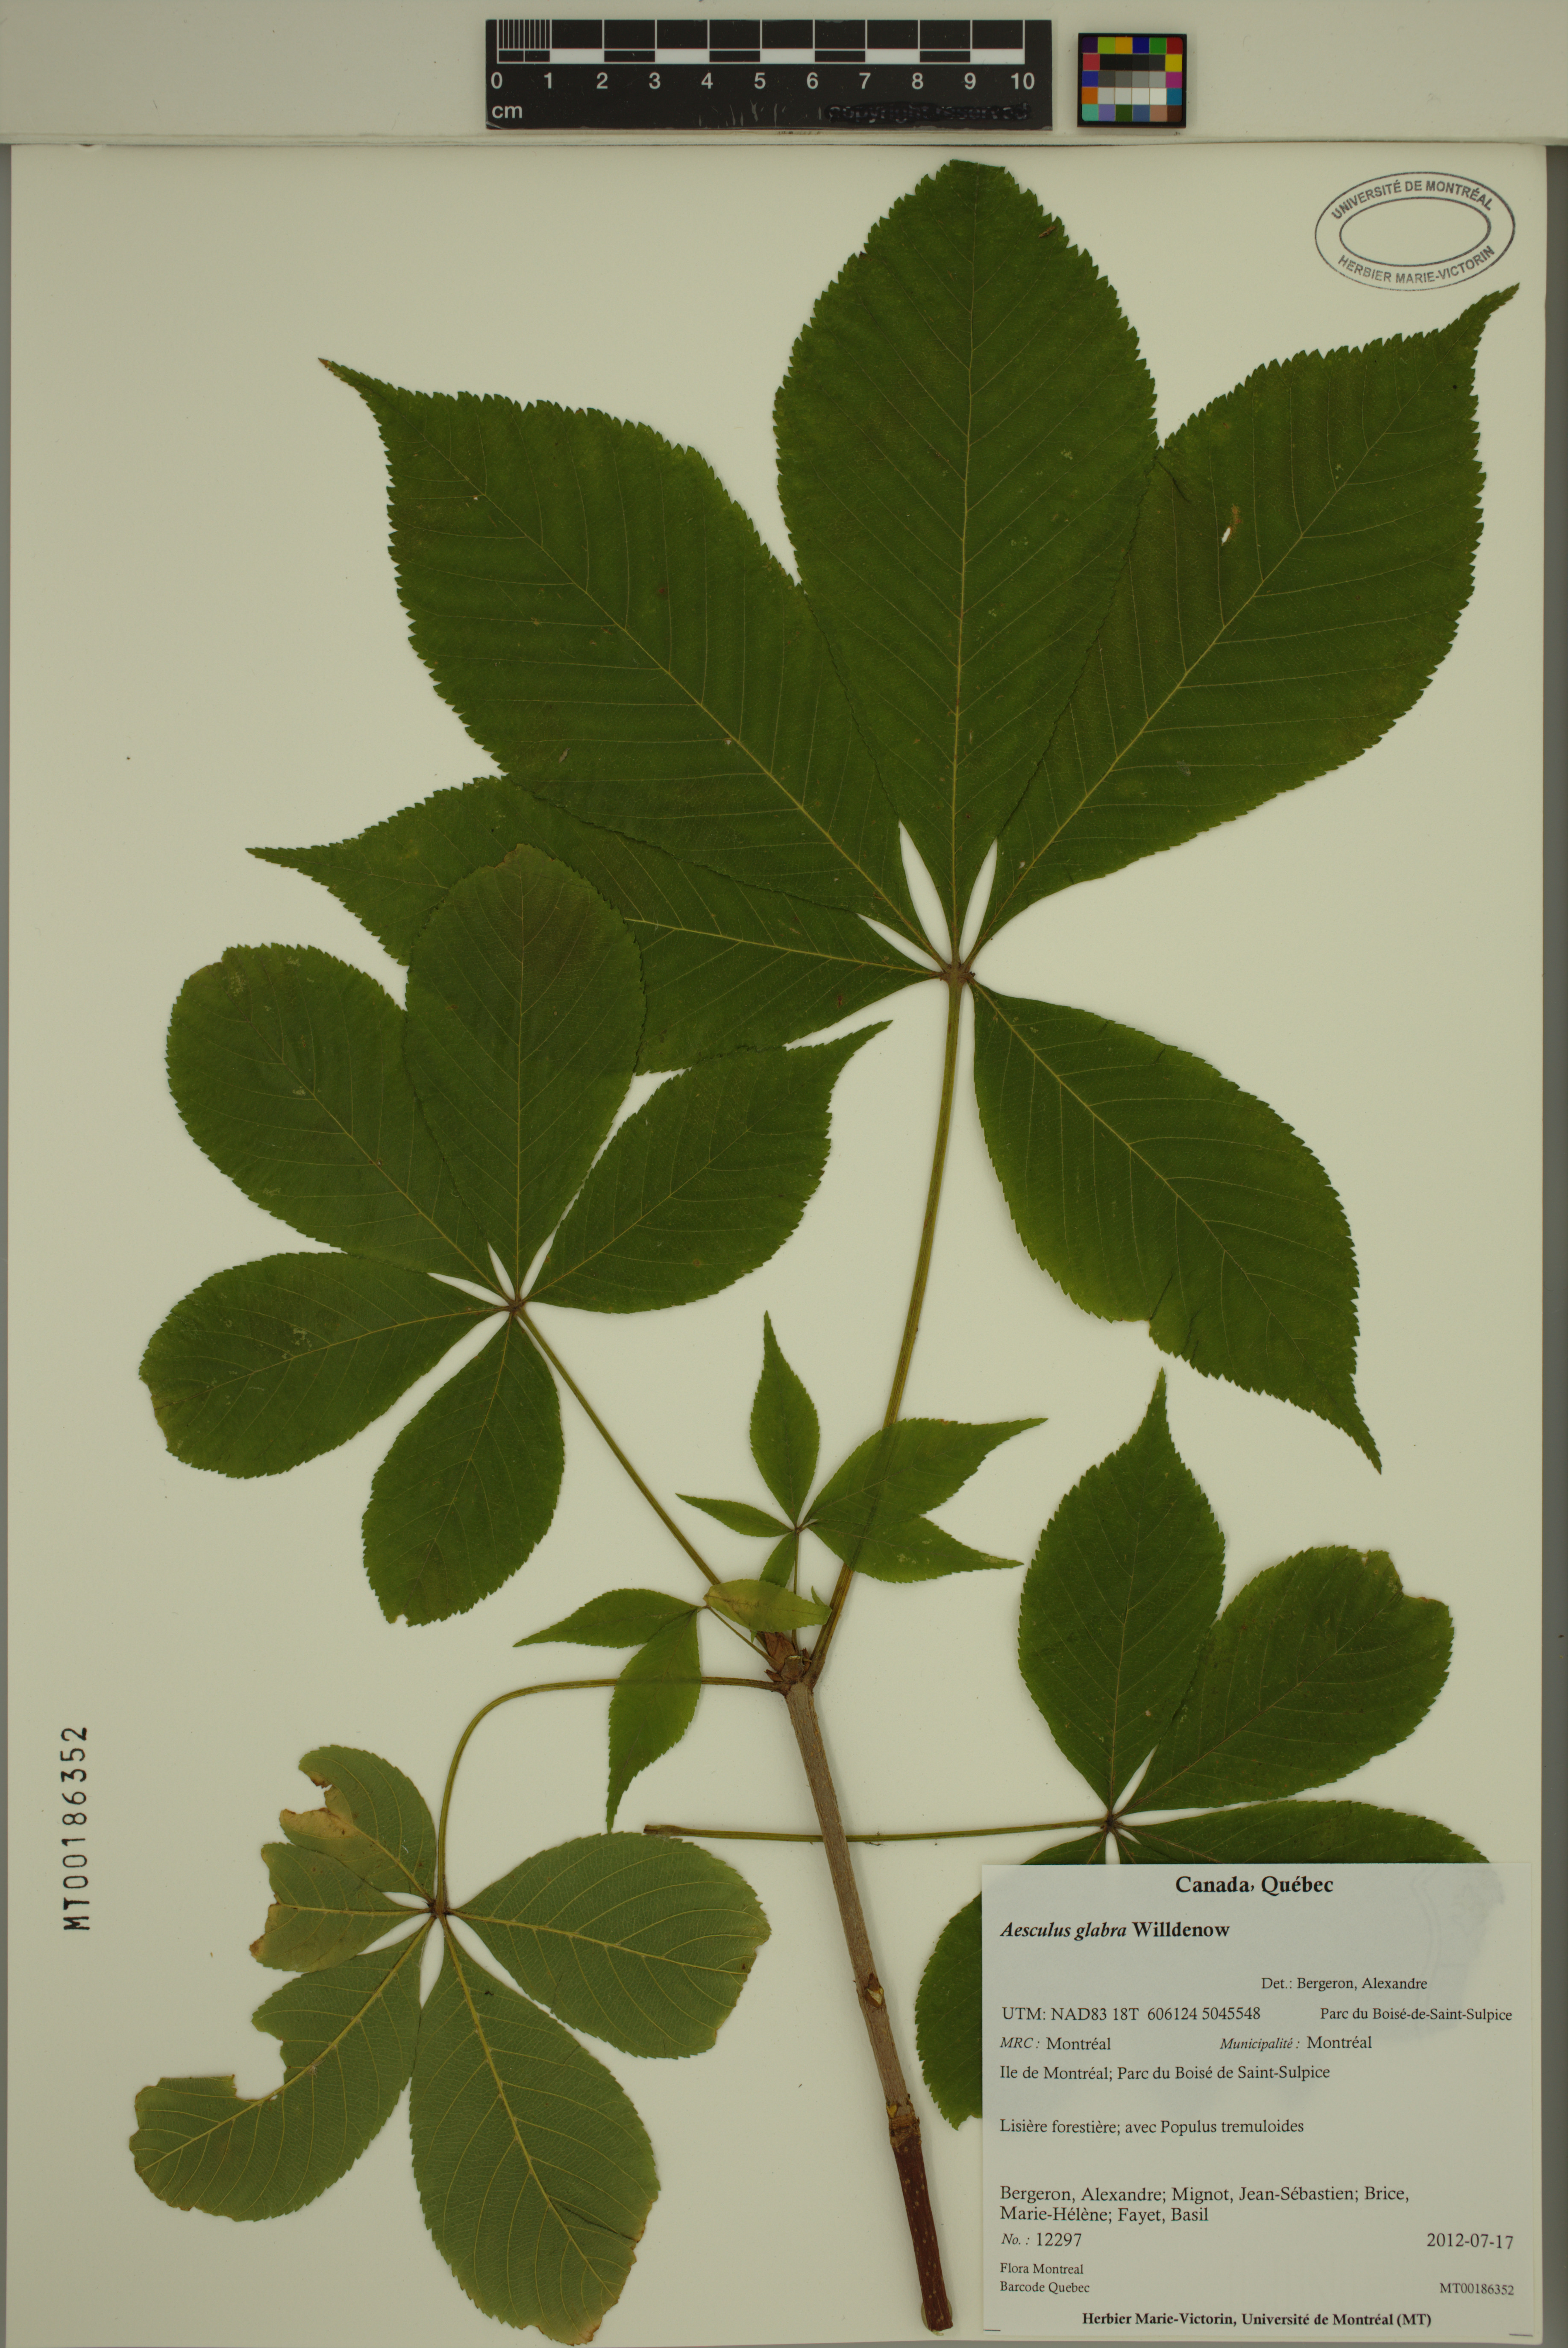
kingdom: Plantae
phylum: Tracheophyta
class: Magnoliopsida
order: Sapindales
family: Sapindaceae
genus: Aesculus
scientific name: Aesculus glabra
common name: Ohio buckeye
